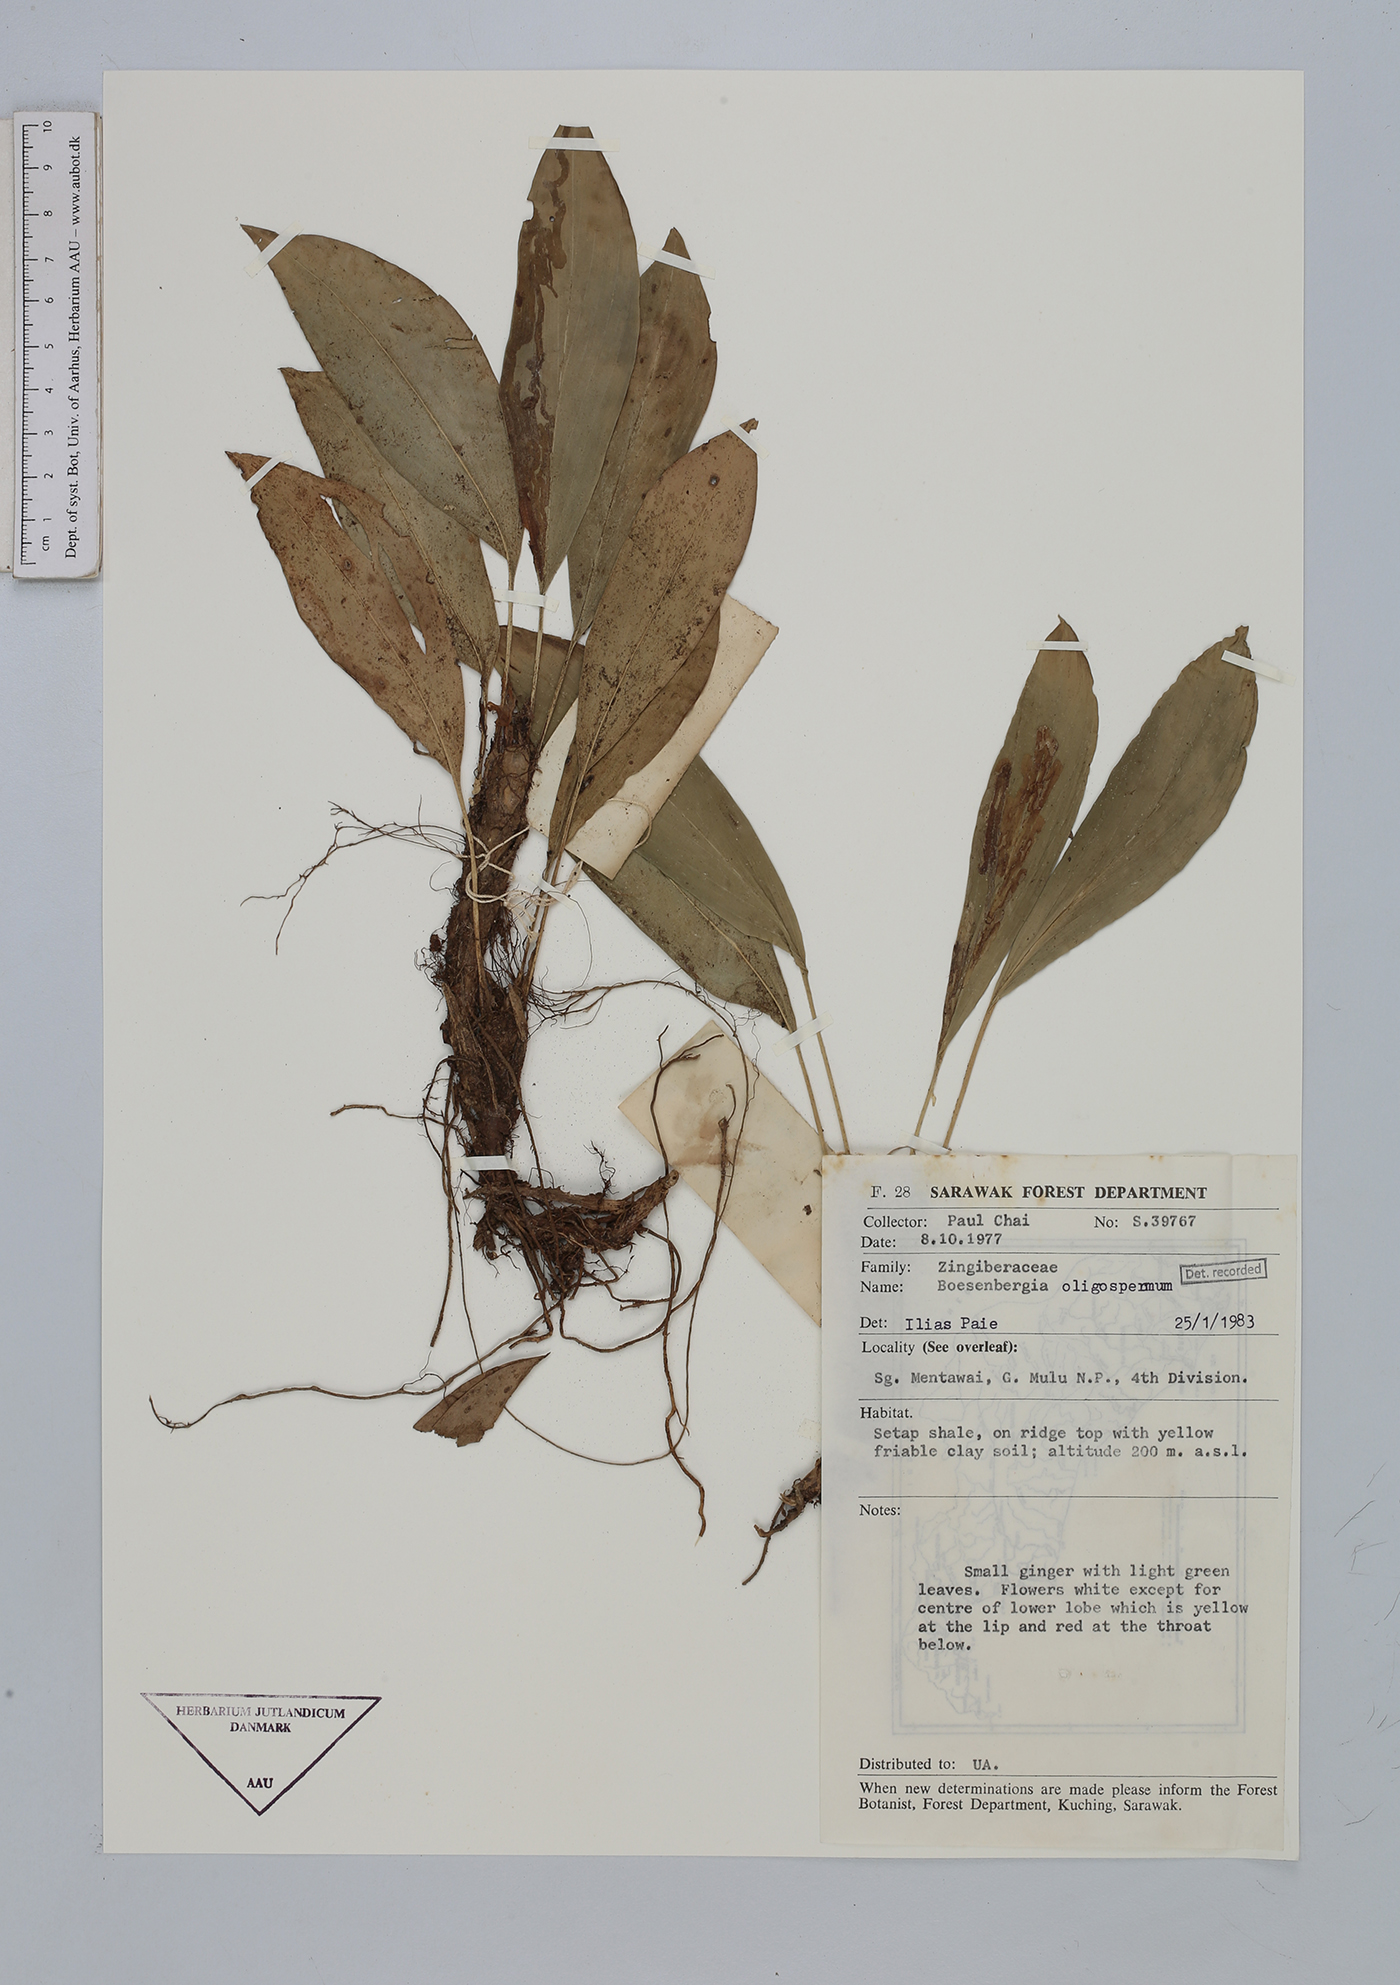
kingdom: Plantae
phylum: Tracheophyta
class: Liliopsida
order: Zingiberales
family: Zingiberaceae
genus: Boesenbergia
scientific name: Boesenbergia oligosperma
